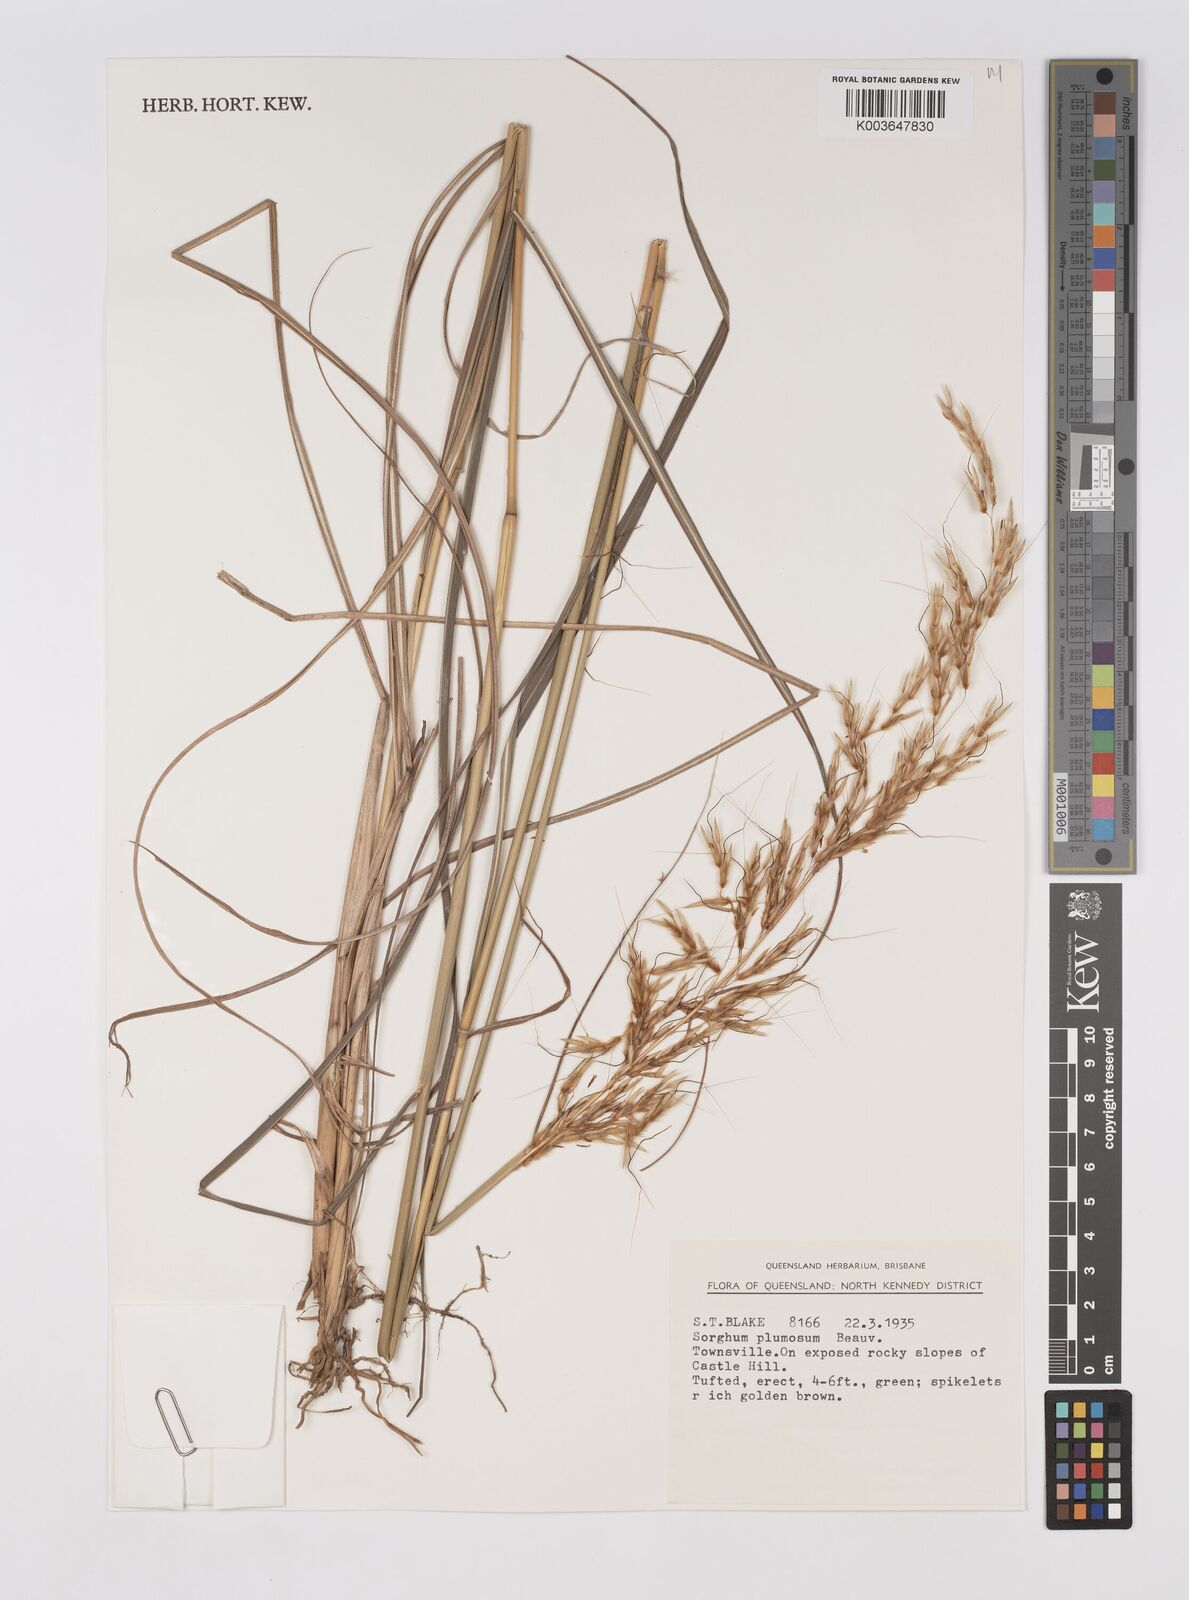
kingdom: Plantae
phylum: Tracheophyta
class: Liliopsida
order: Poales
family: Poaceae
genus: Sarga
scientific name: Sarga plumosa
